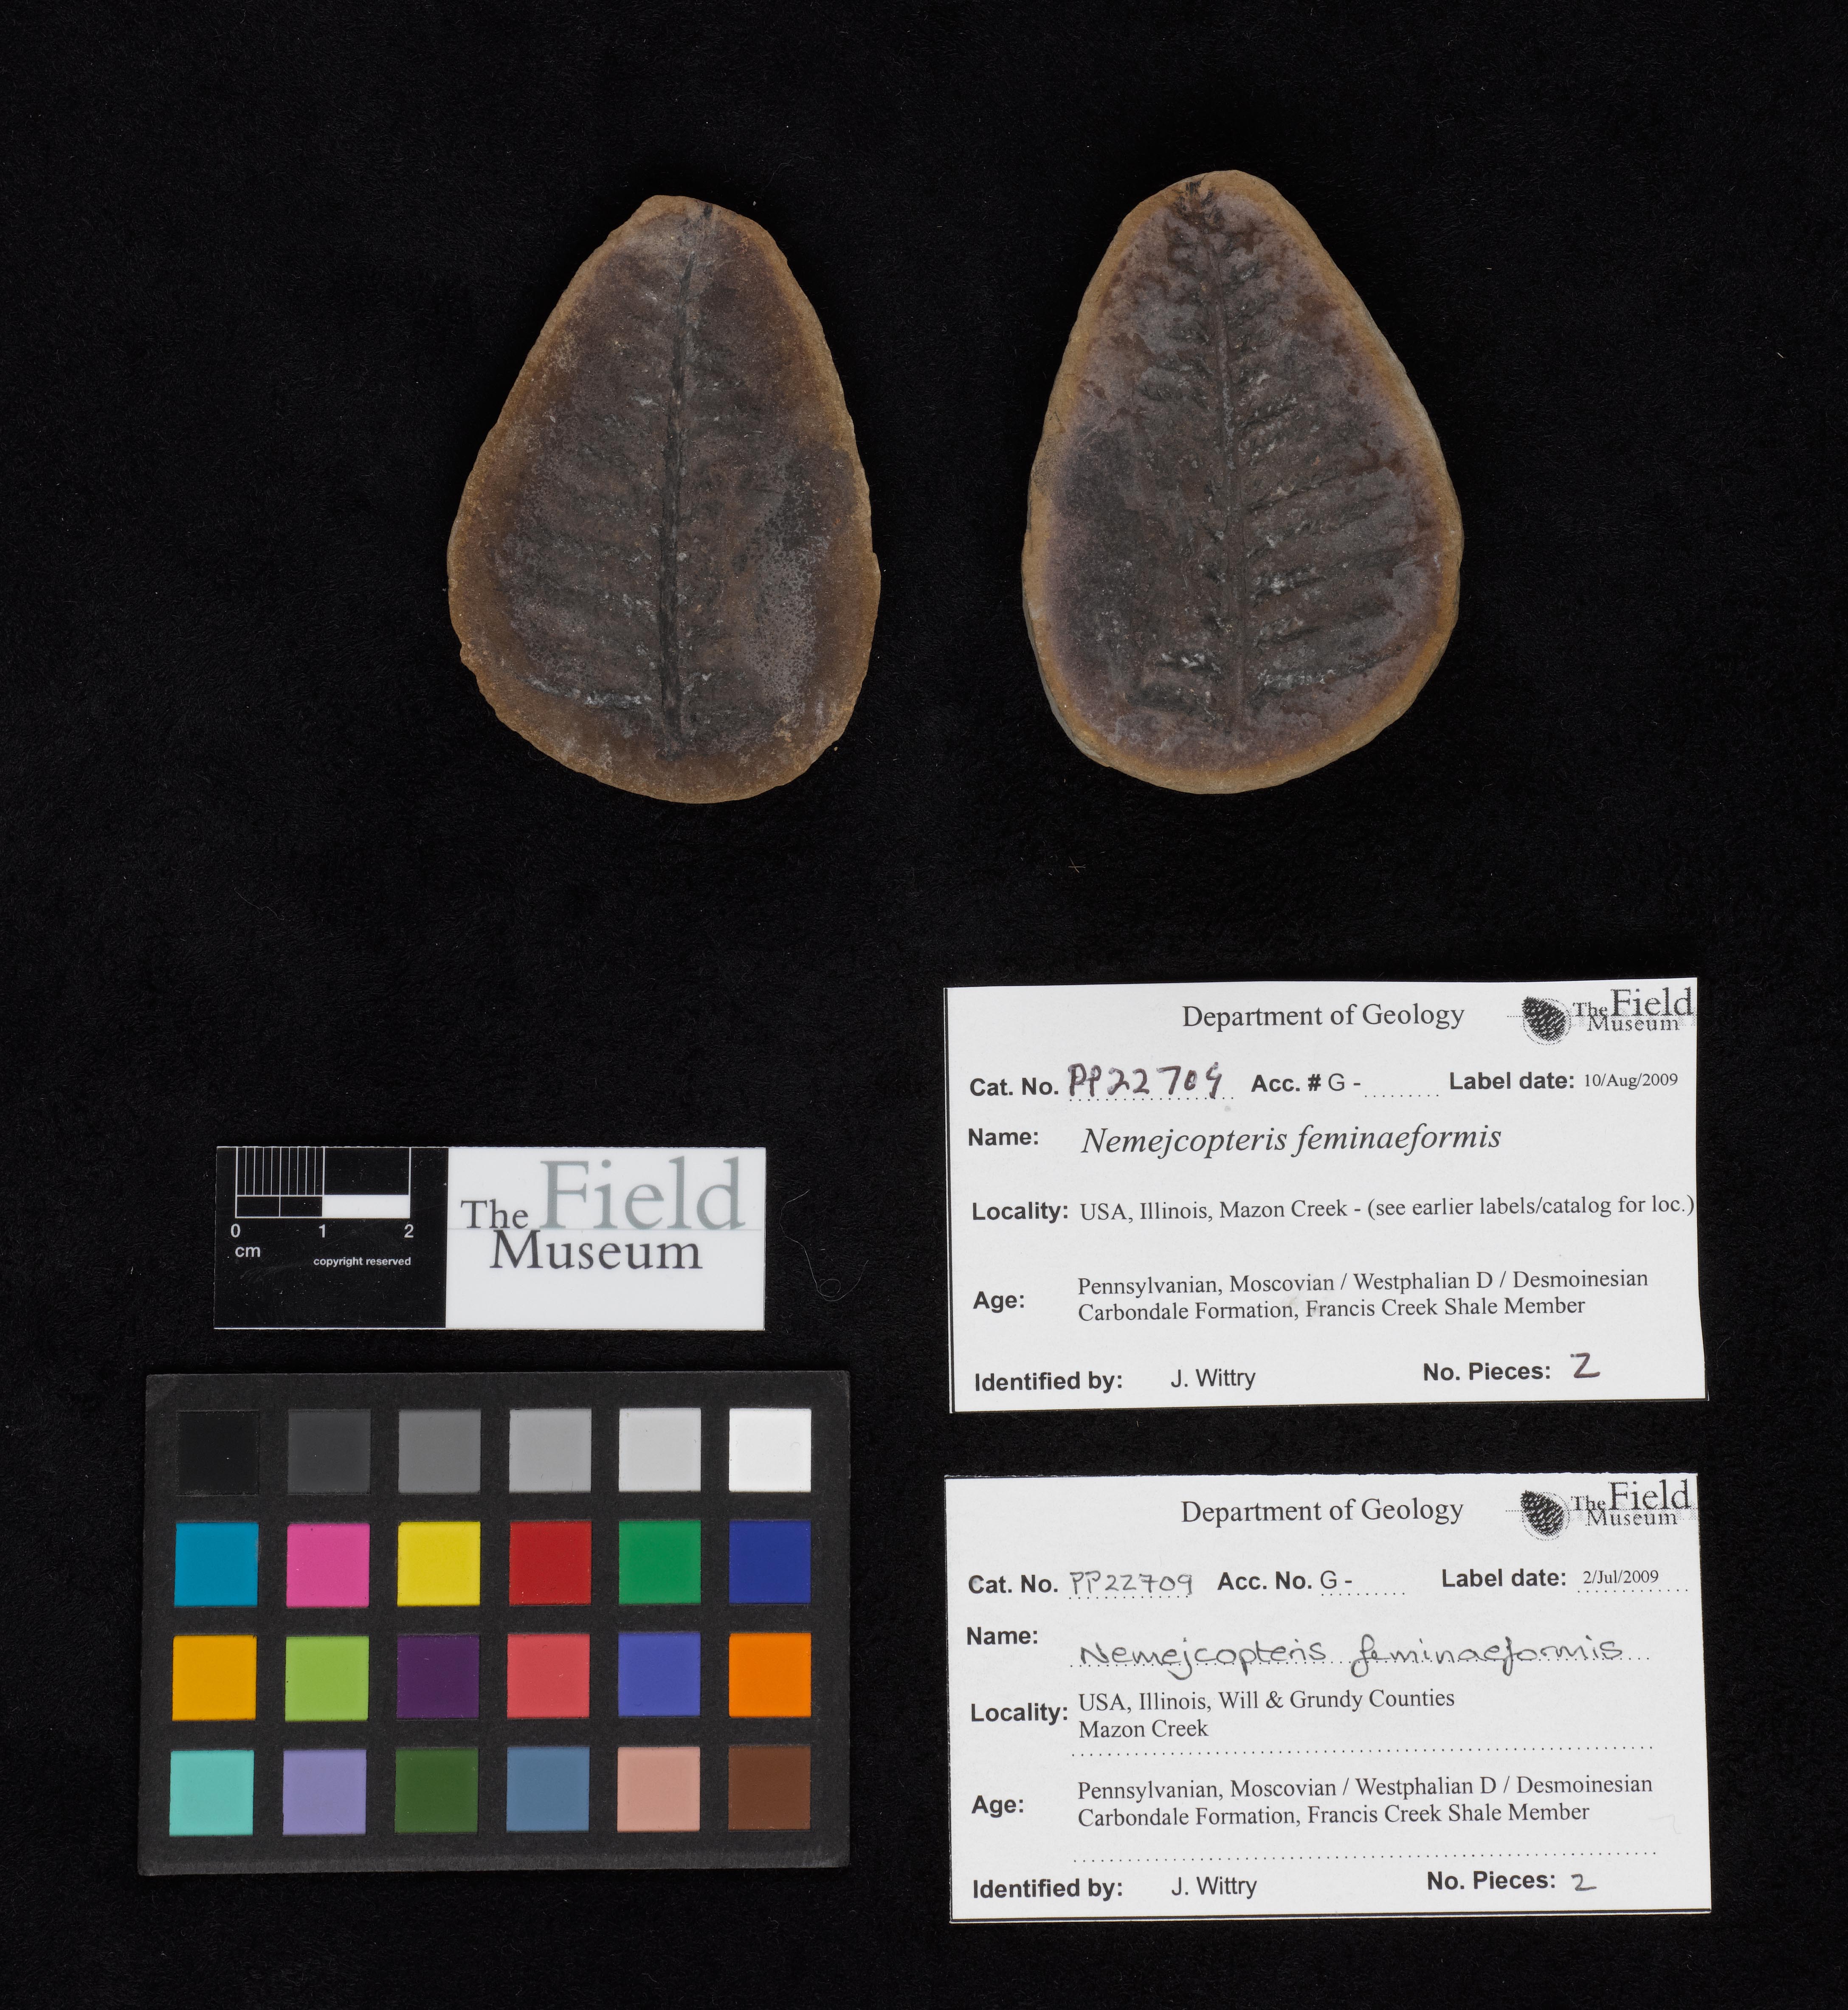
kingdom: Plantae
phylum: Tracheophyta
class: Polypodiopsida
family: Zygopteridaceae
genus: Nemejcopteris
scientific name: Nemejcopteris feminaeformis
